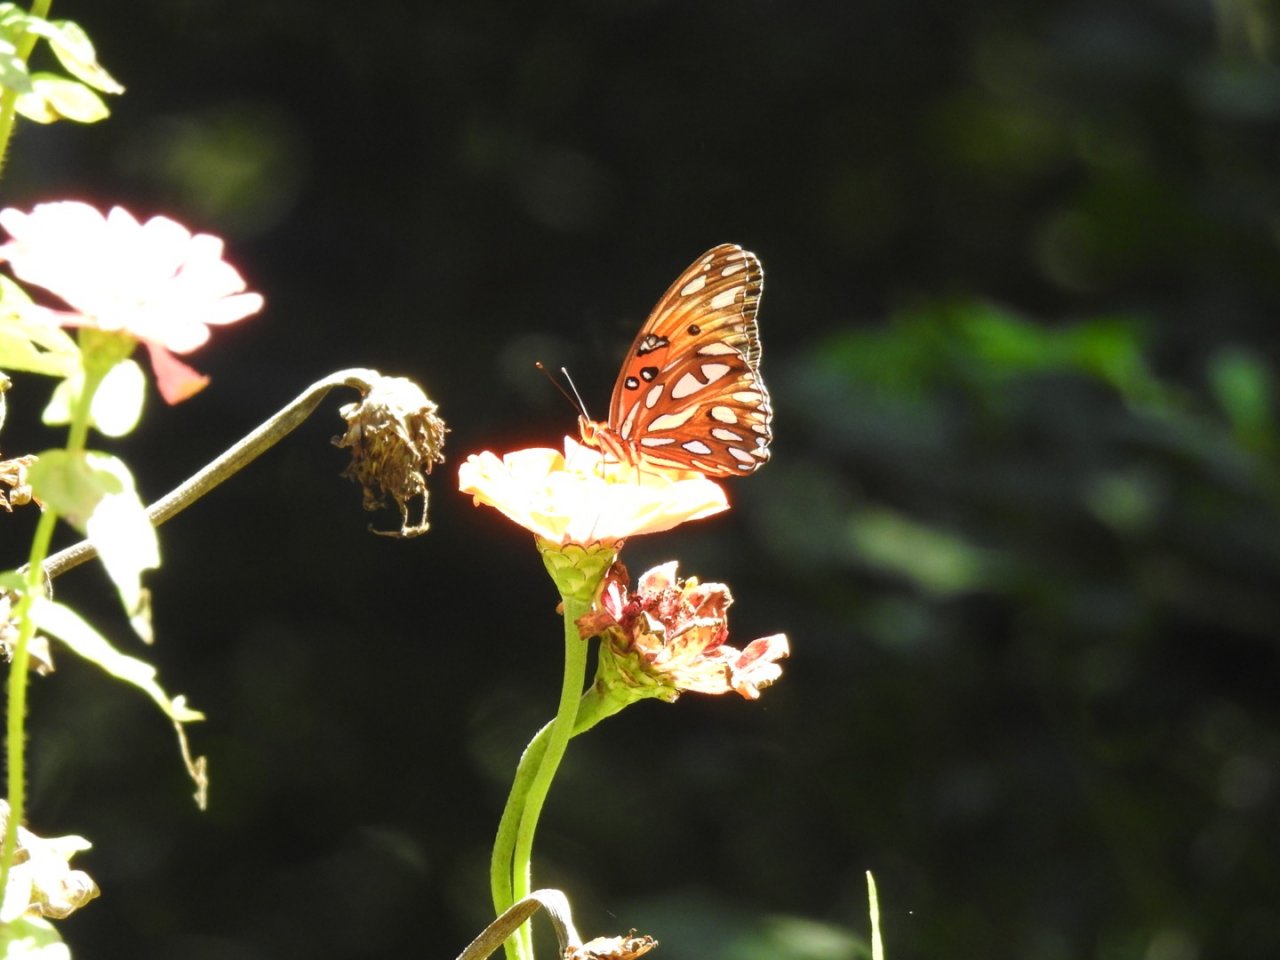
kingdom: Animalia
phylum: Arthropoda
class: Insecta
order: Lepidoptera
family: Nymphalidae
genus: Dione
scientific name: Dione vanillae
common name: Gulf Fritillary
